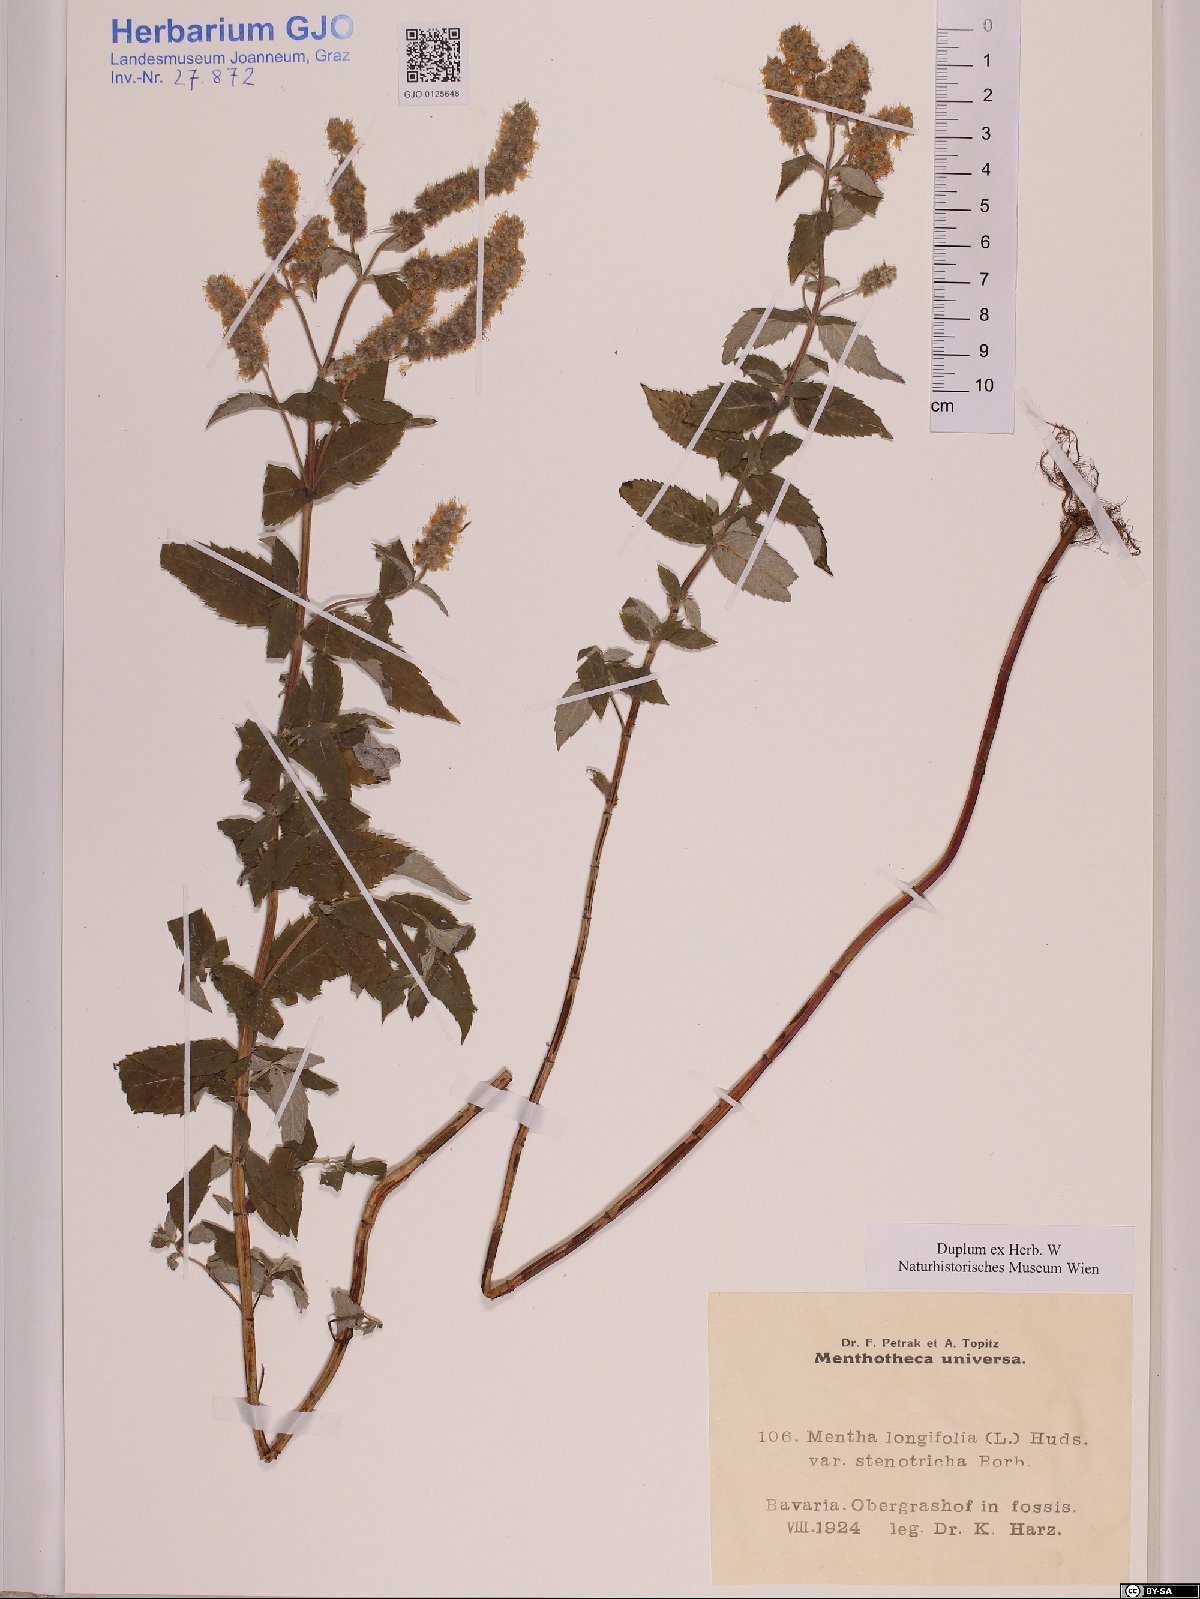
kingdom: Plantae
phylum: Tracheophyta
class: Magnoliopsida
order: Lamiales
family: Lamiaceae
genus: Mentha
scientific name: Mentha longifolia
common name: Horse mint
